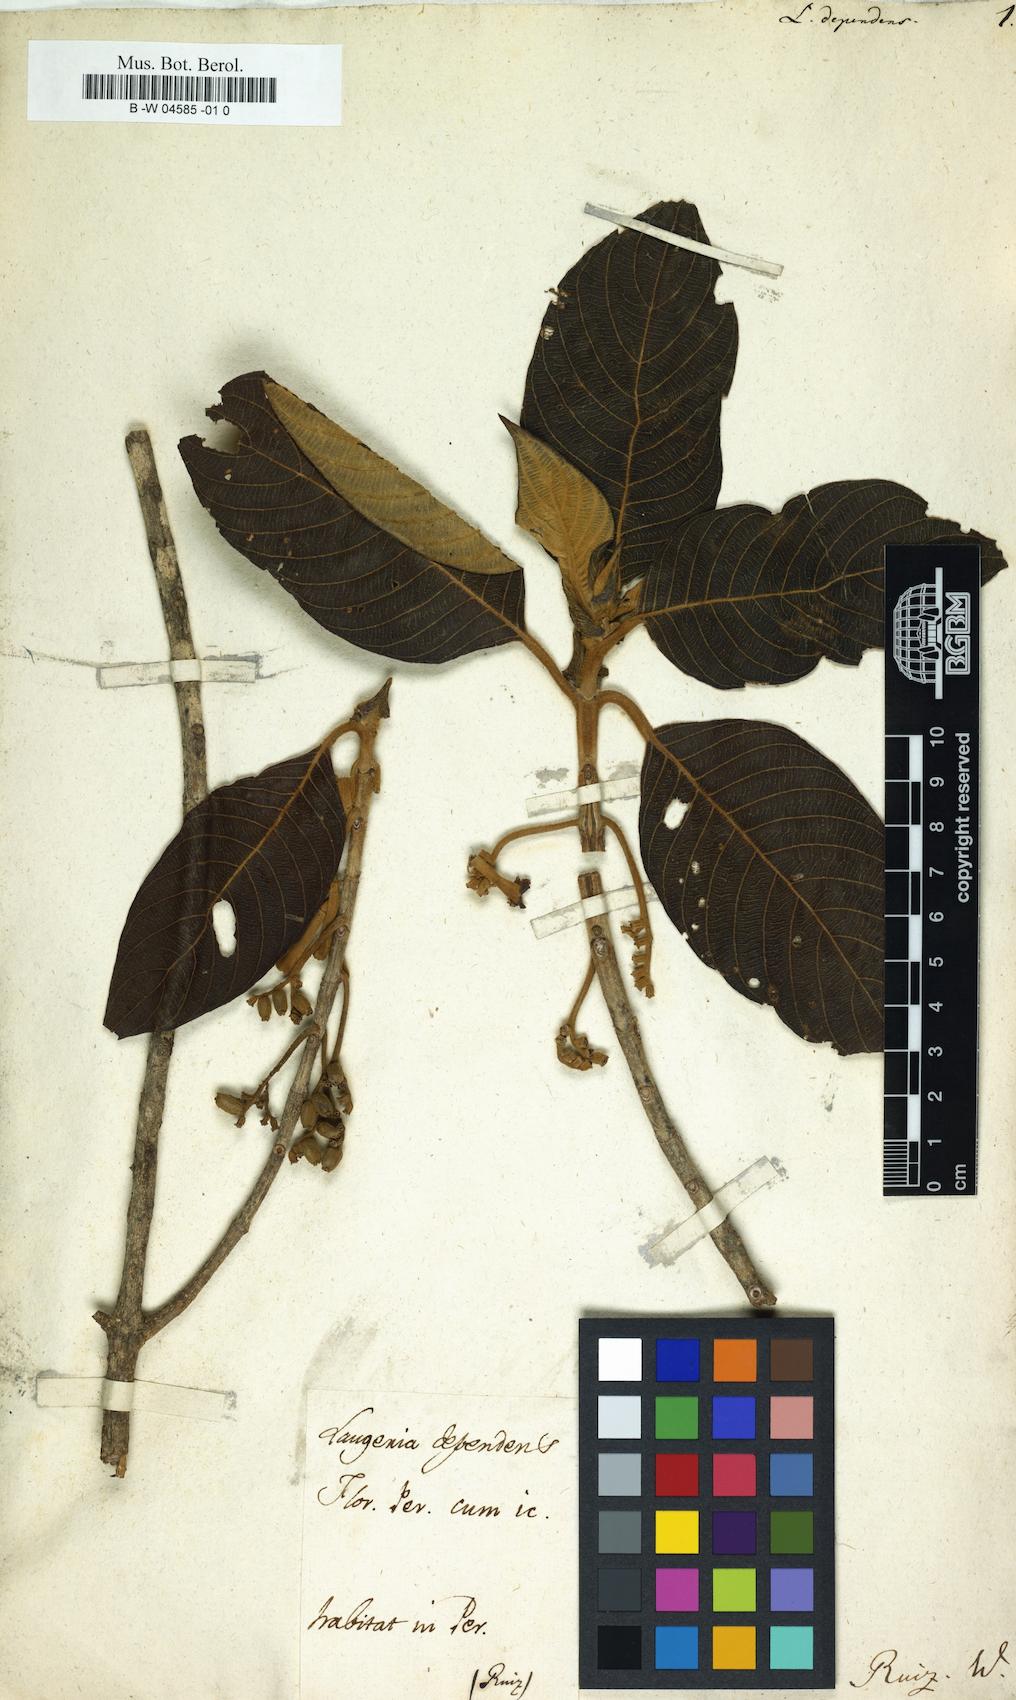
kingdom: Plantae
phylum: Tracheophyta
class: Magnoliopsida
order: Gentianales
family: Rubiaceae
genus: Tournefortiopsis
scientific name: Tournefortiopsis dependens
